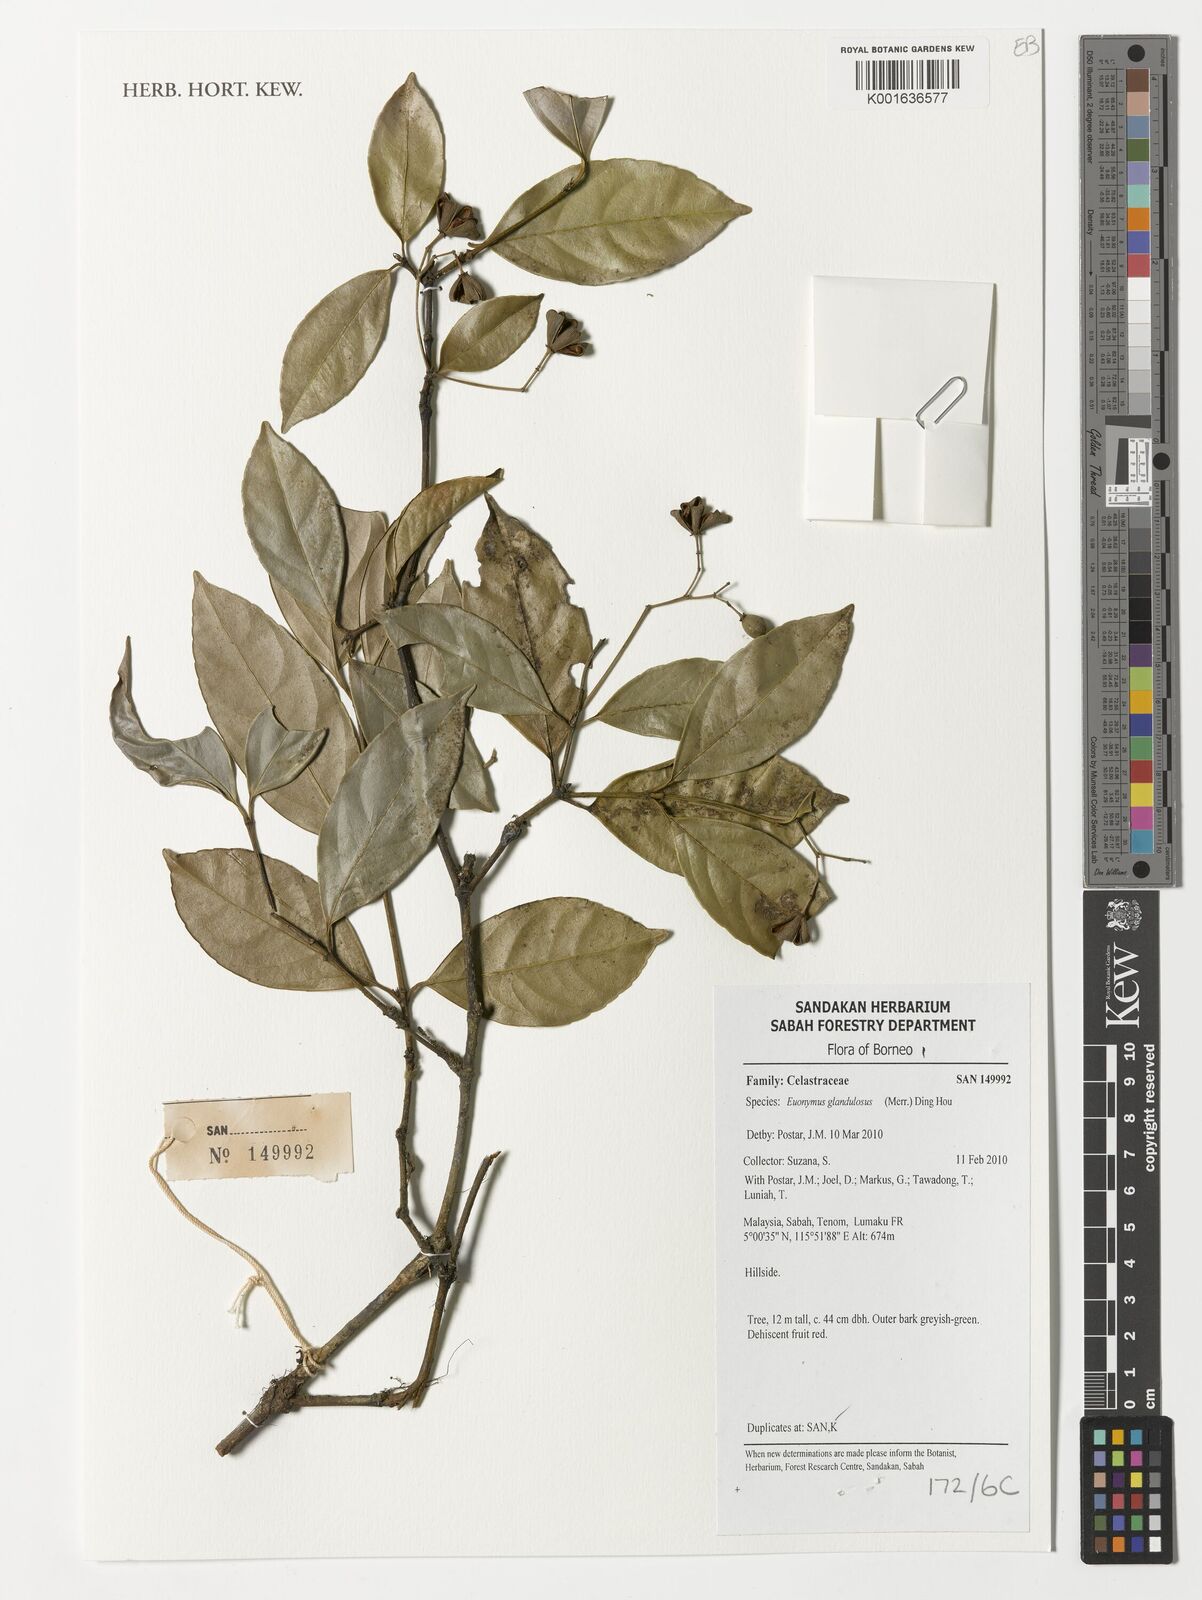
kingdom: Plantae
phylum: Tracheophyta
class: Magnoliopsida
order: Celastrales
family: Celastraceae
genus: Euonymus
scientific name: Euonymus glandulosus
